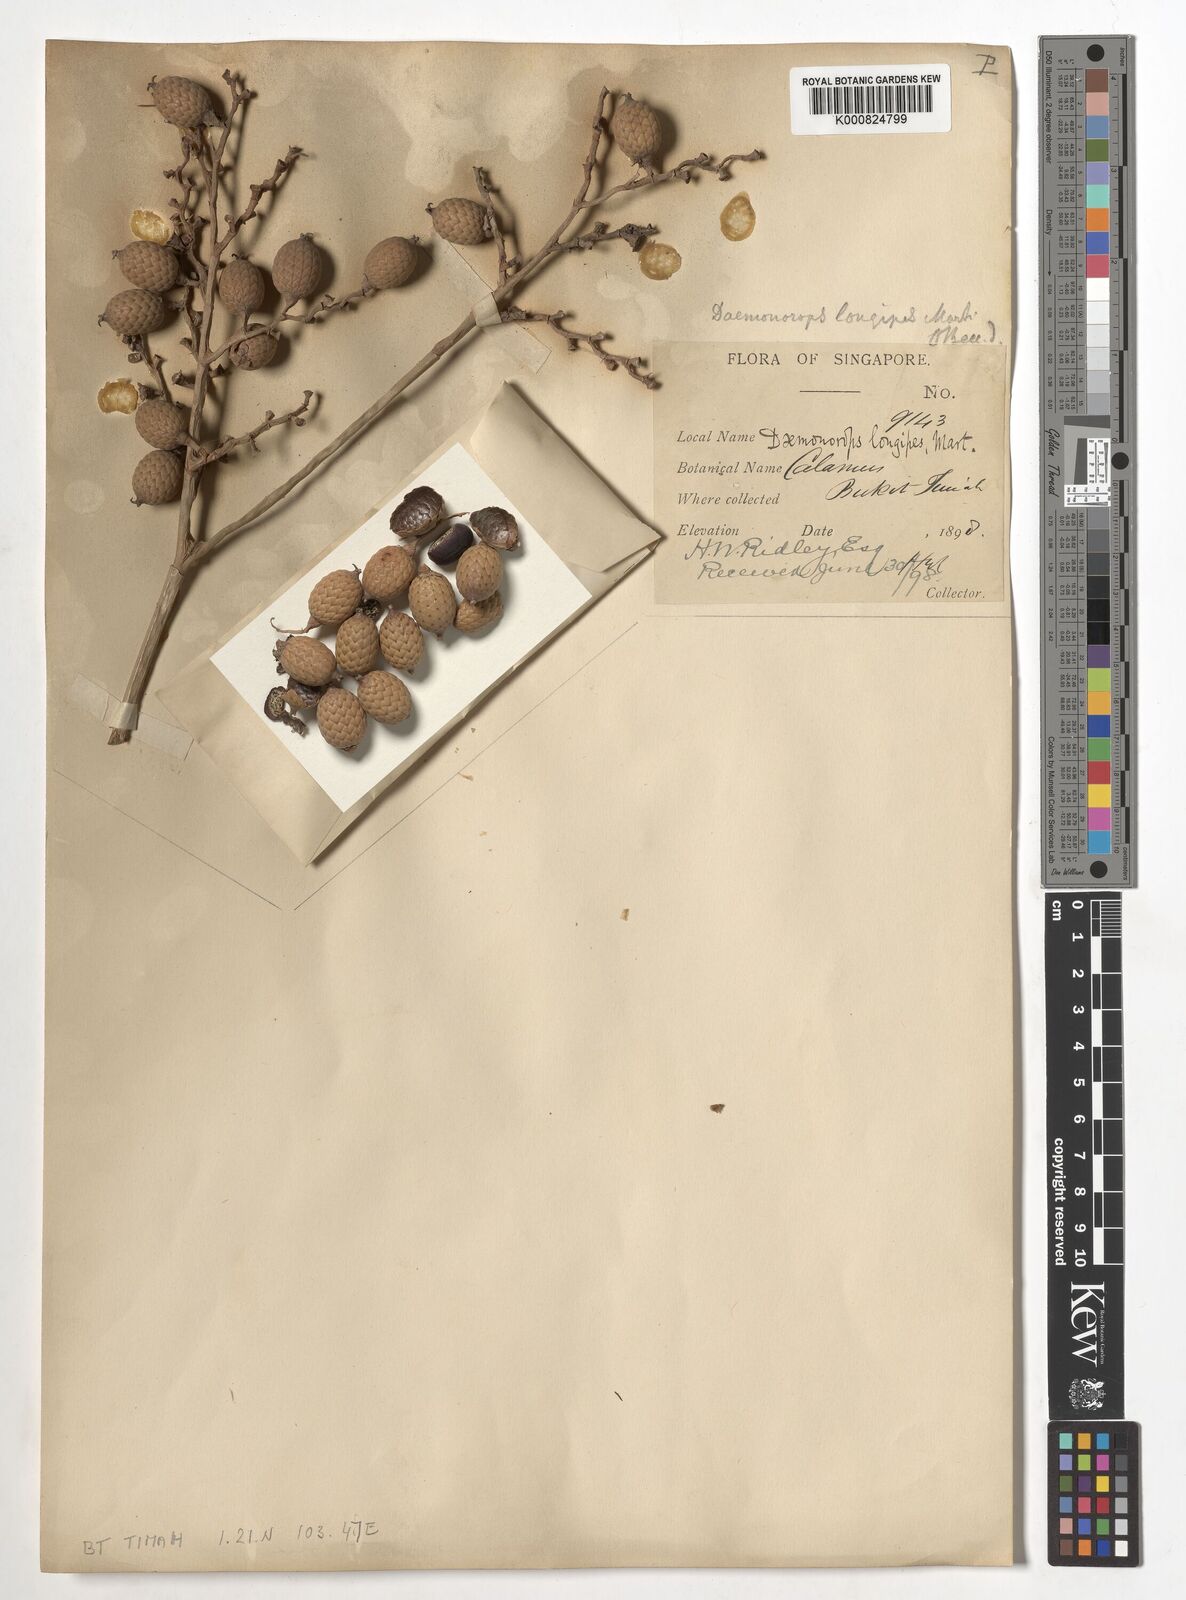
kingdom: Plantae
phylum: Tracheophyta
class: Liliopsida
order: Arecales
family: Arecaceae
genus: Calamus
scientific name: Calamus longipes
